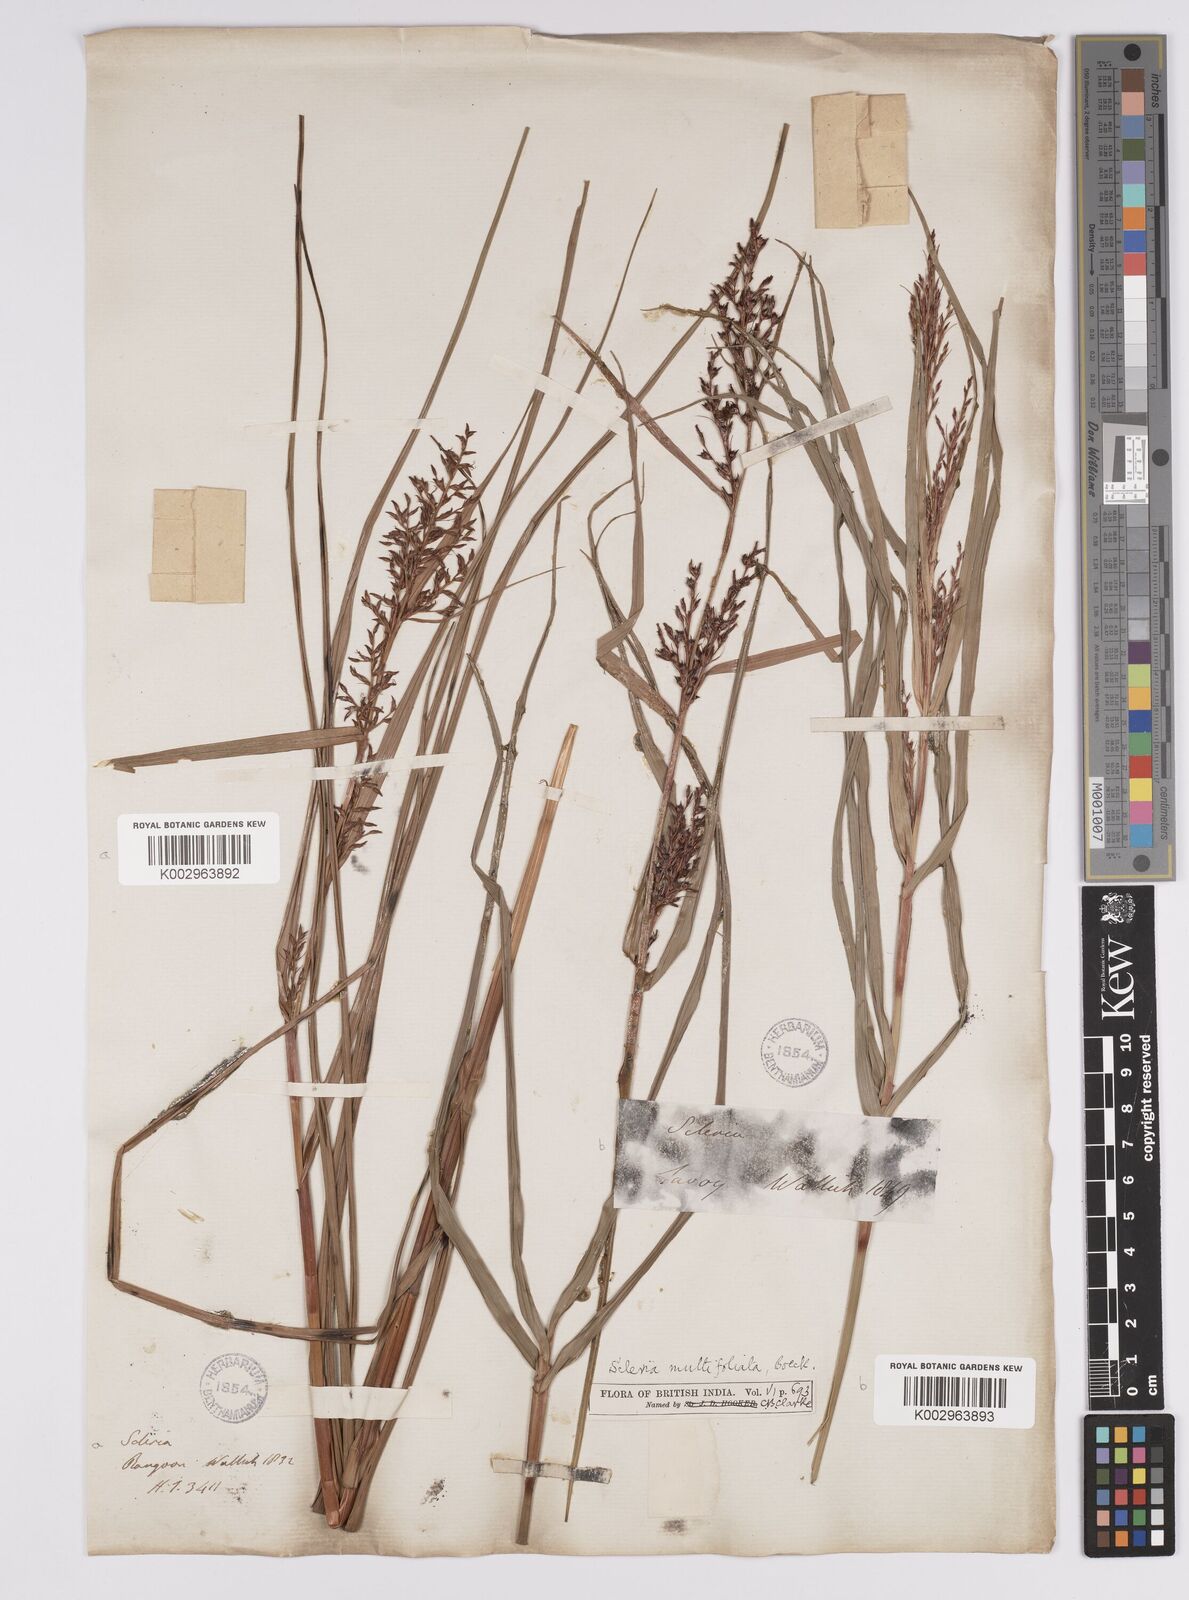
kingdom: Plantae
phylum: Tracheophyta
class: Liliopsida
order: Poales
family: Cyperaceae
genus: Scleria
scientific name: Scleria purpurascens
